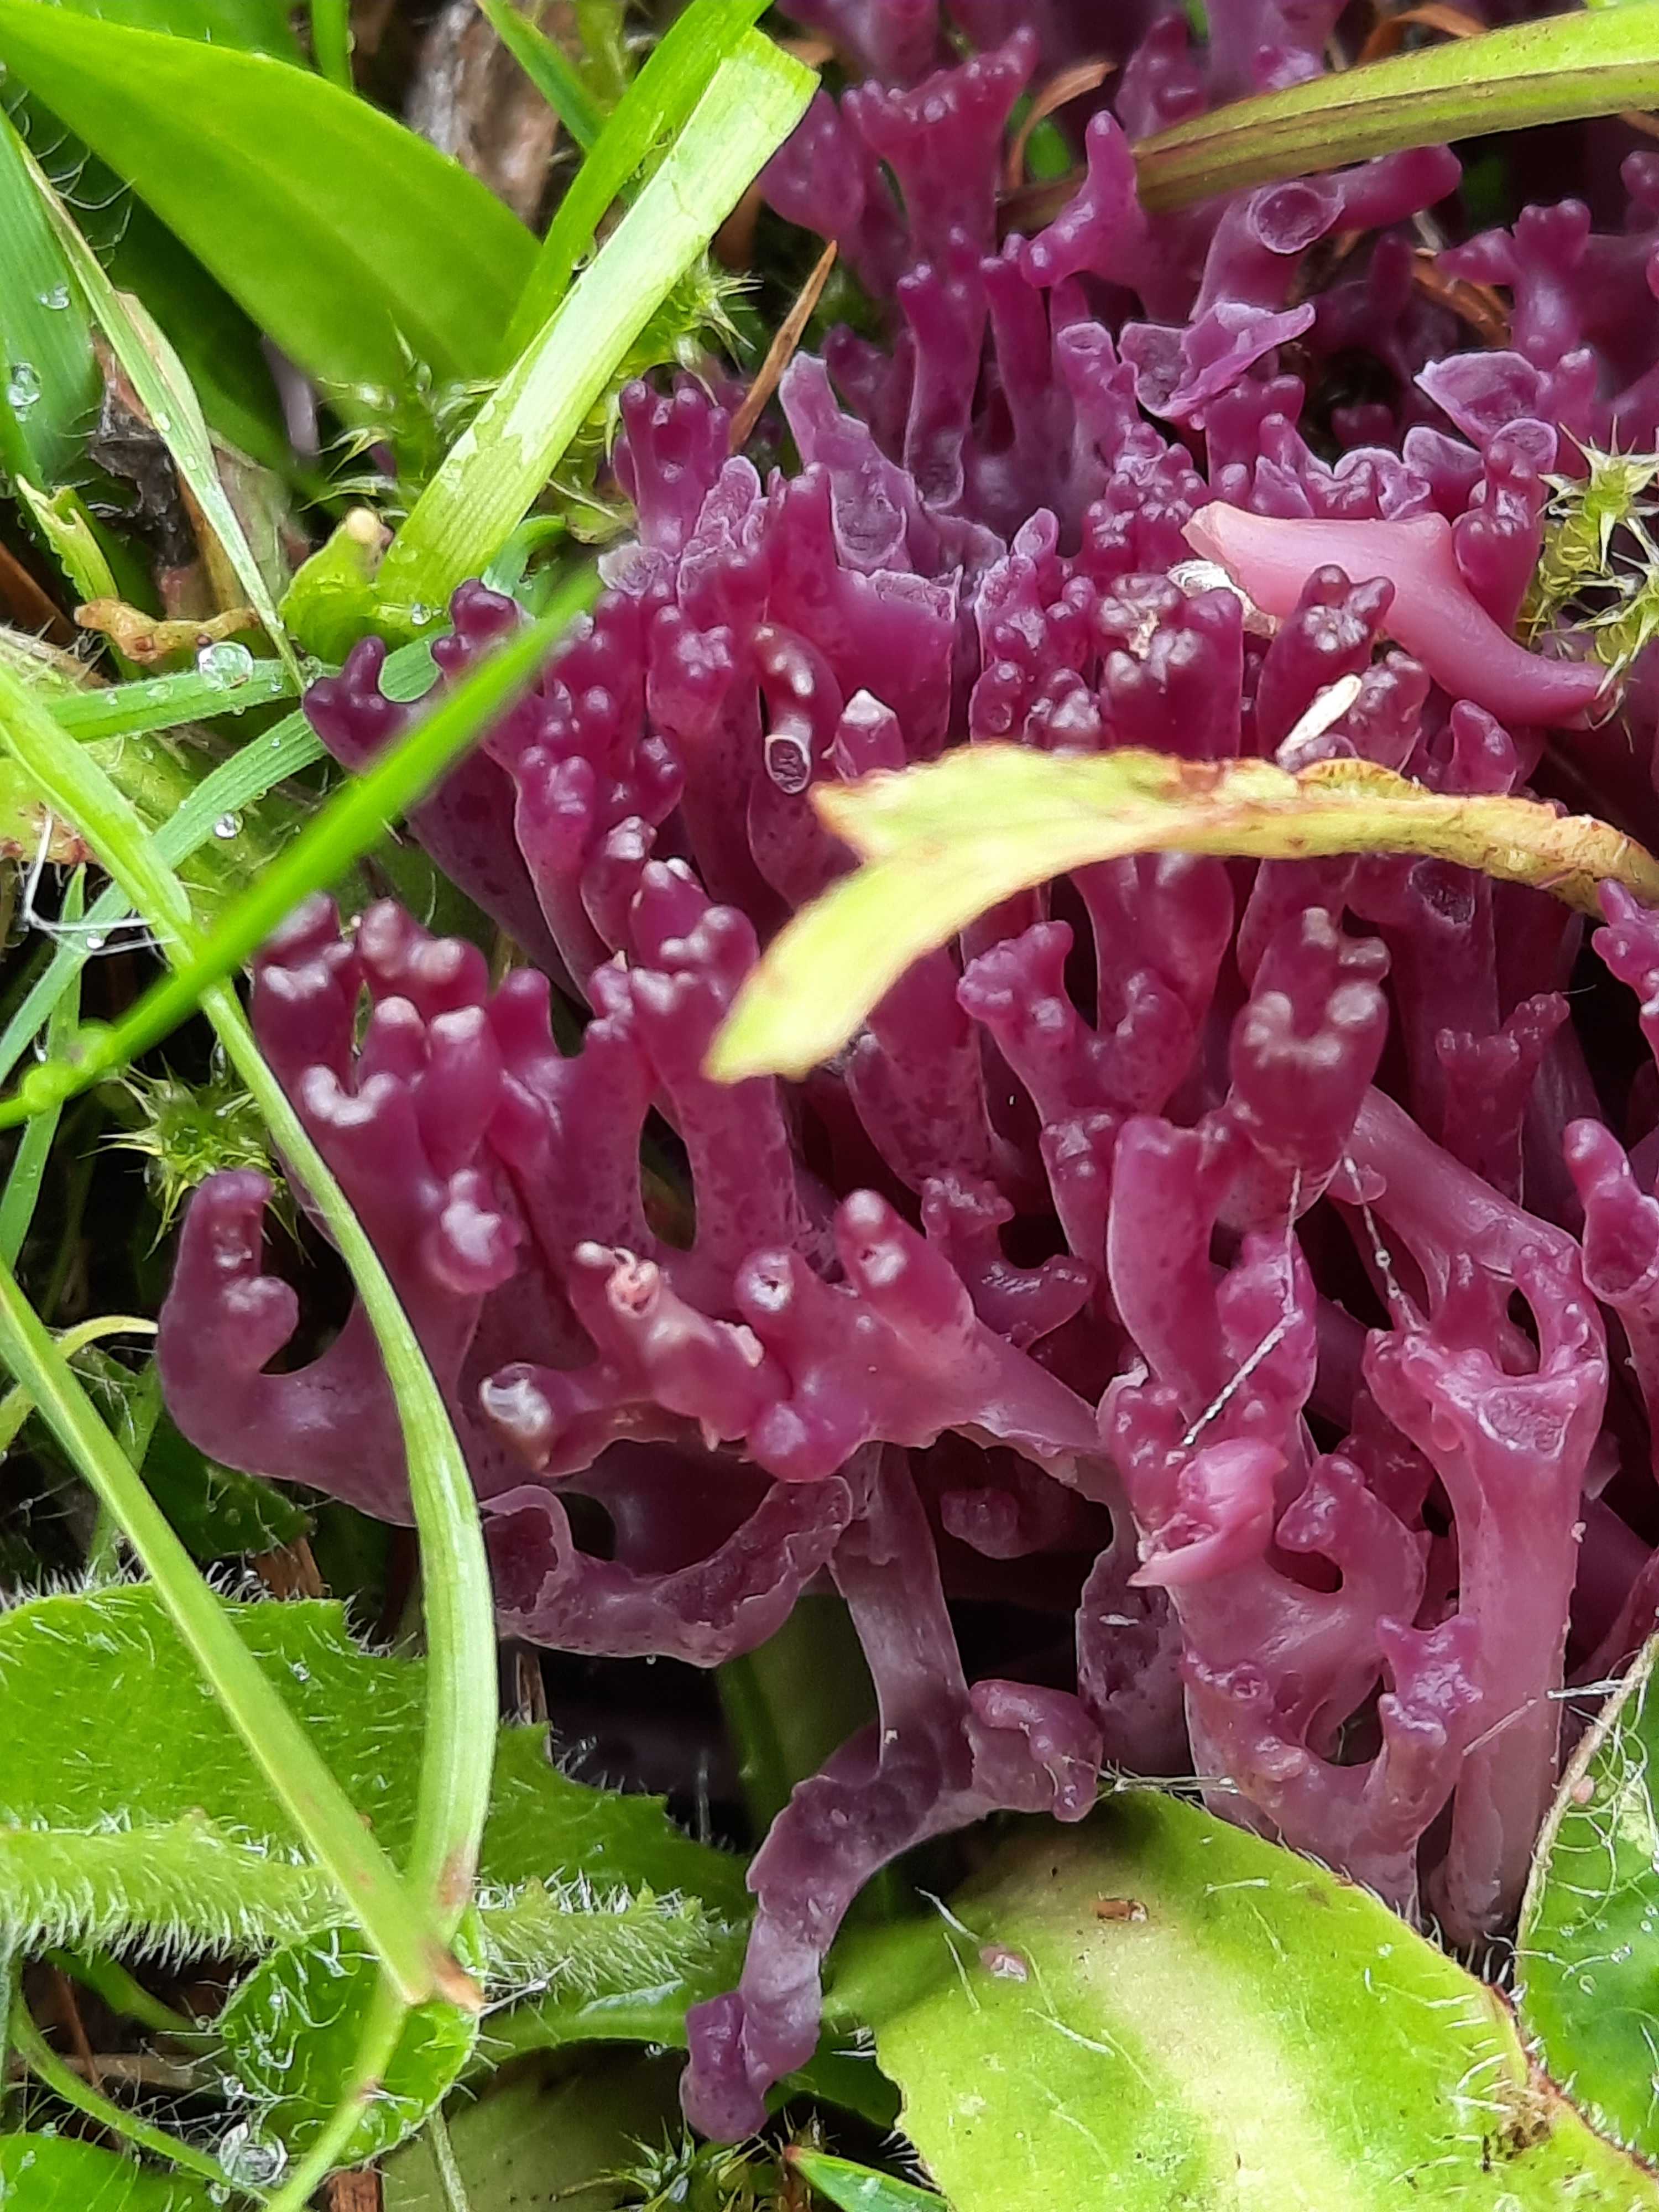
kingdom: Fungi
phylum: Basidiomycota
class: Agaricomycetes
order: Agaricales
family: Clavariaceae
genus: Clavaria
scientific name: Clavaria zollingeri
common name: purpur-køllesvamp
